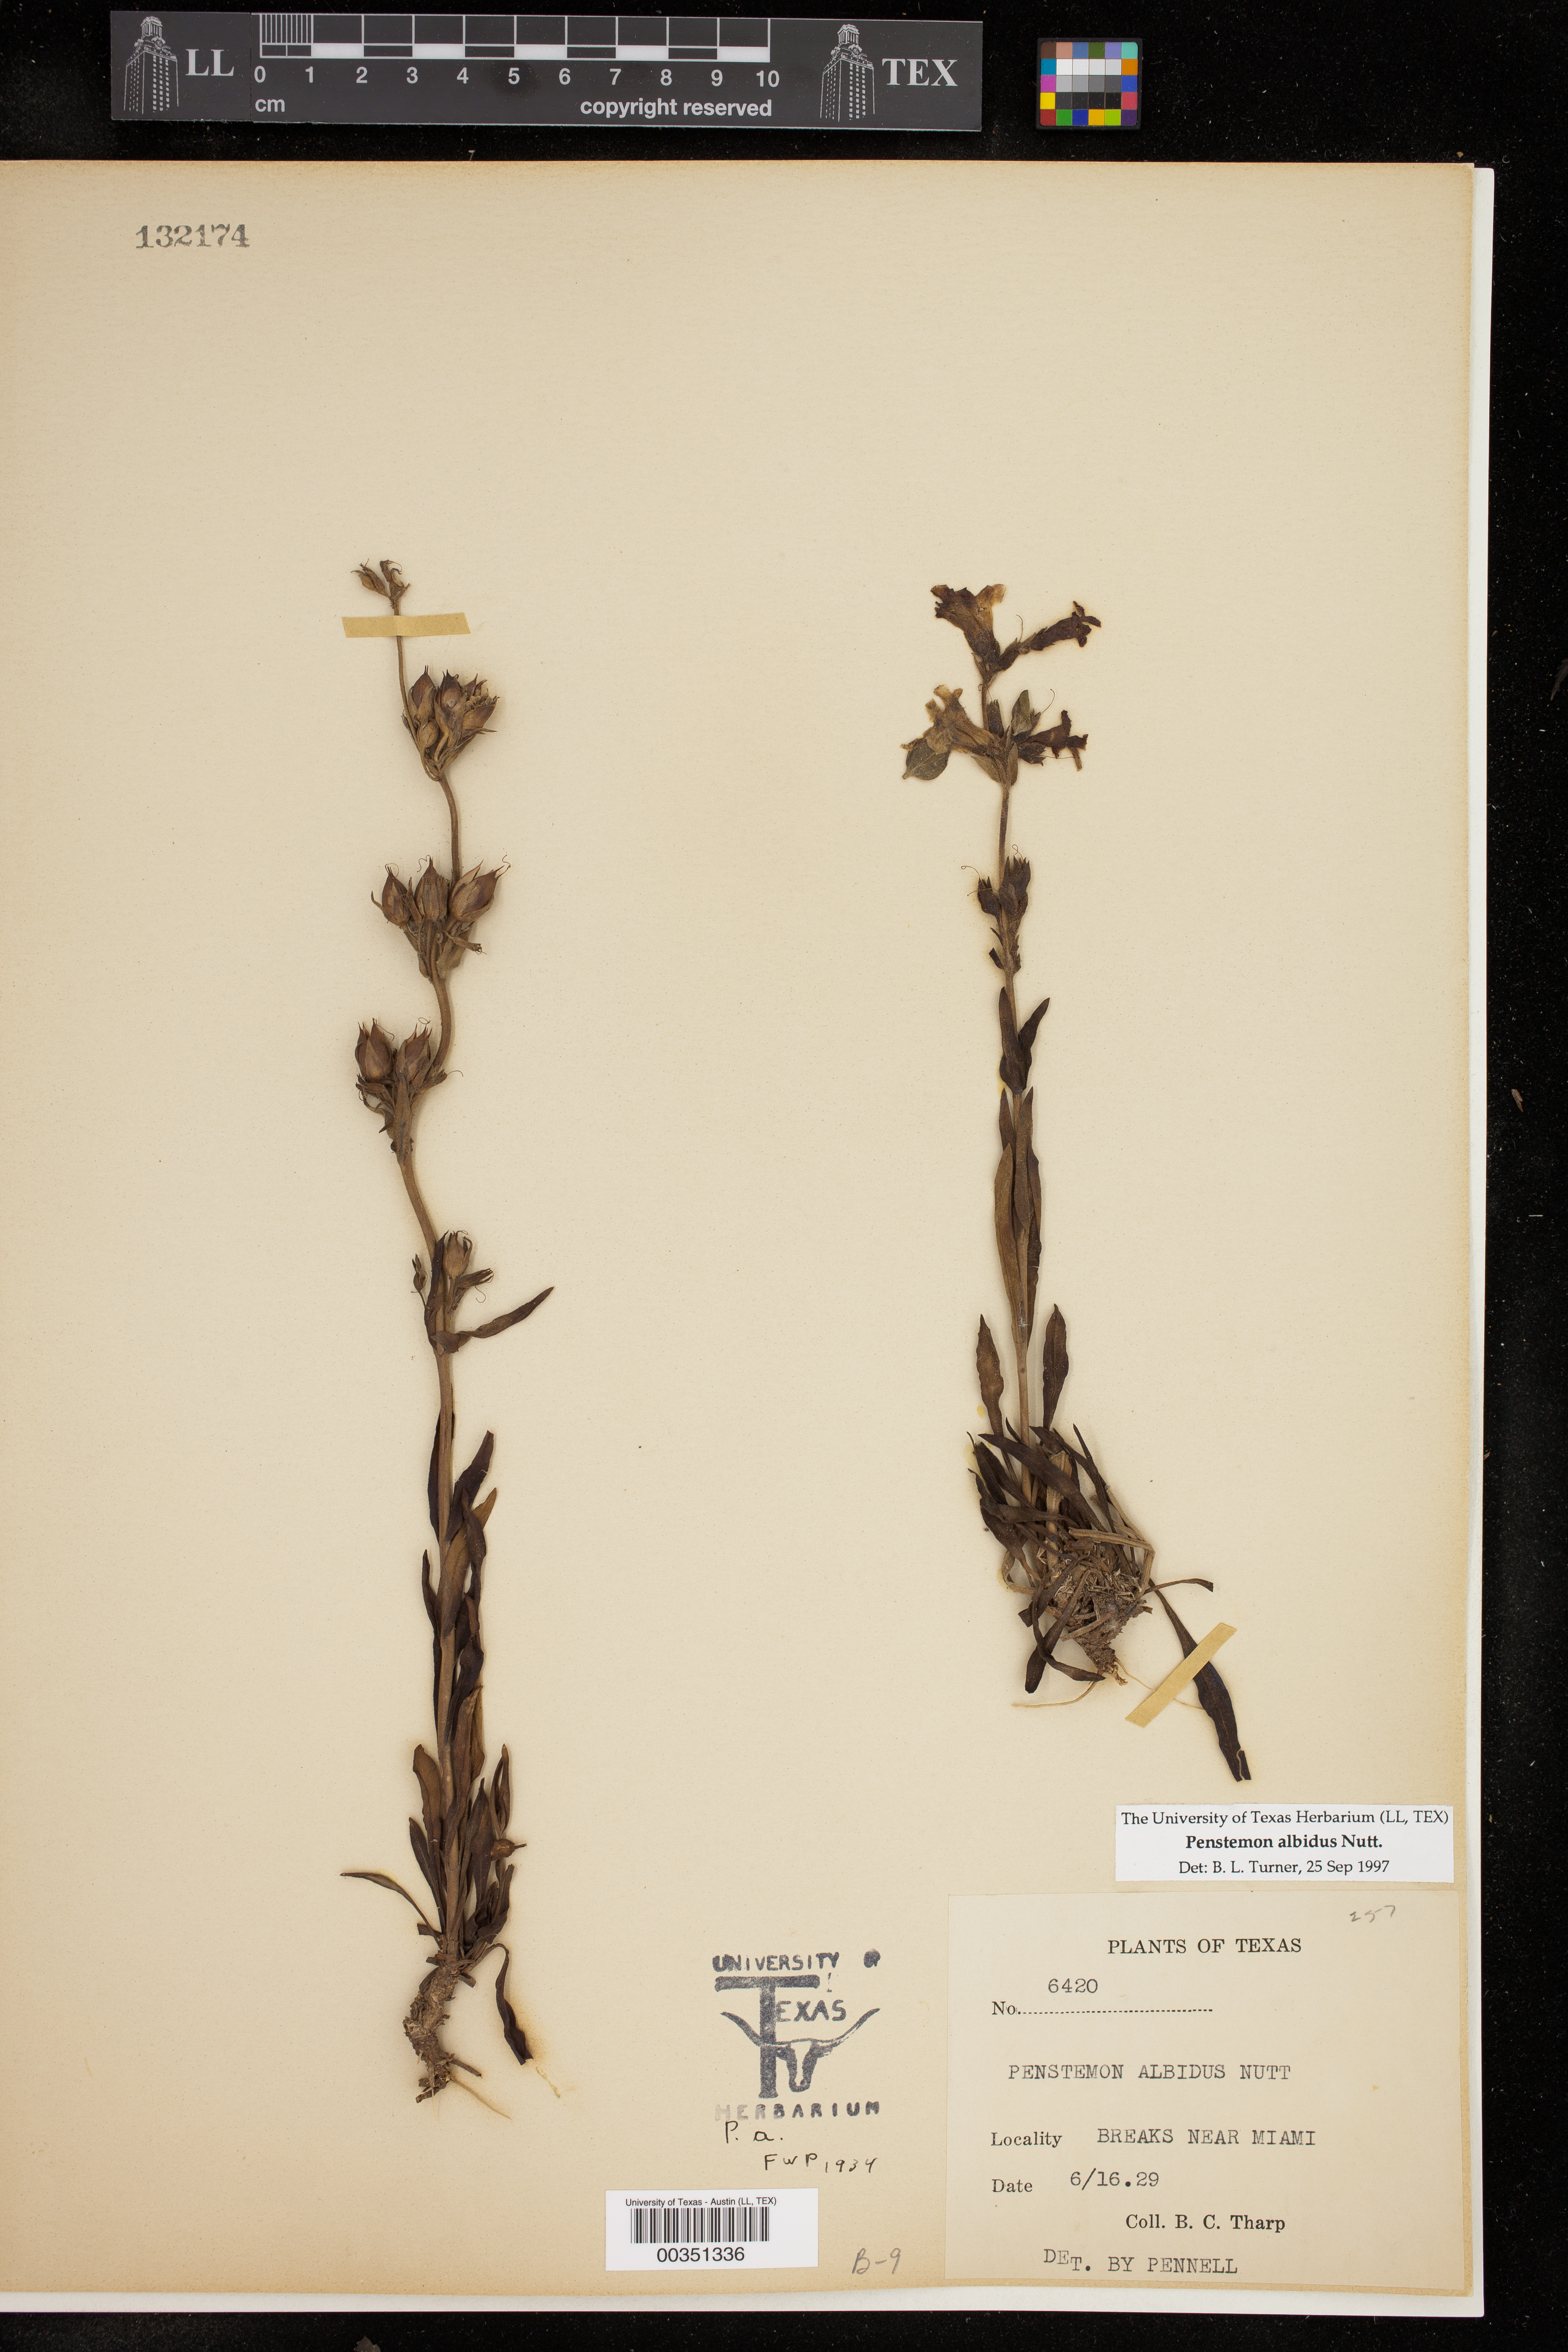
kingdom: Plantae
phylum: Tracheophyta
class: Magnoliopsida
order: Lamiales
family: Plantaginaceae
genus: Penstemon
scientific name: Penstemon albidus
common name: White beardtongue
